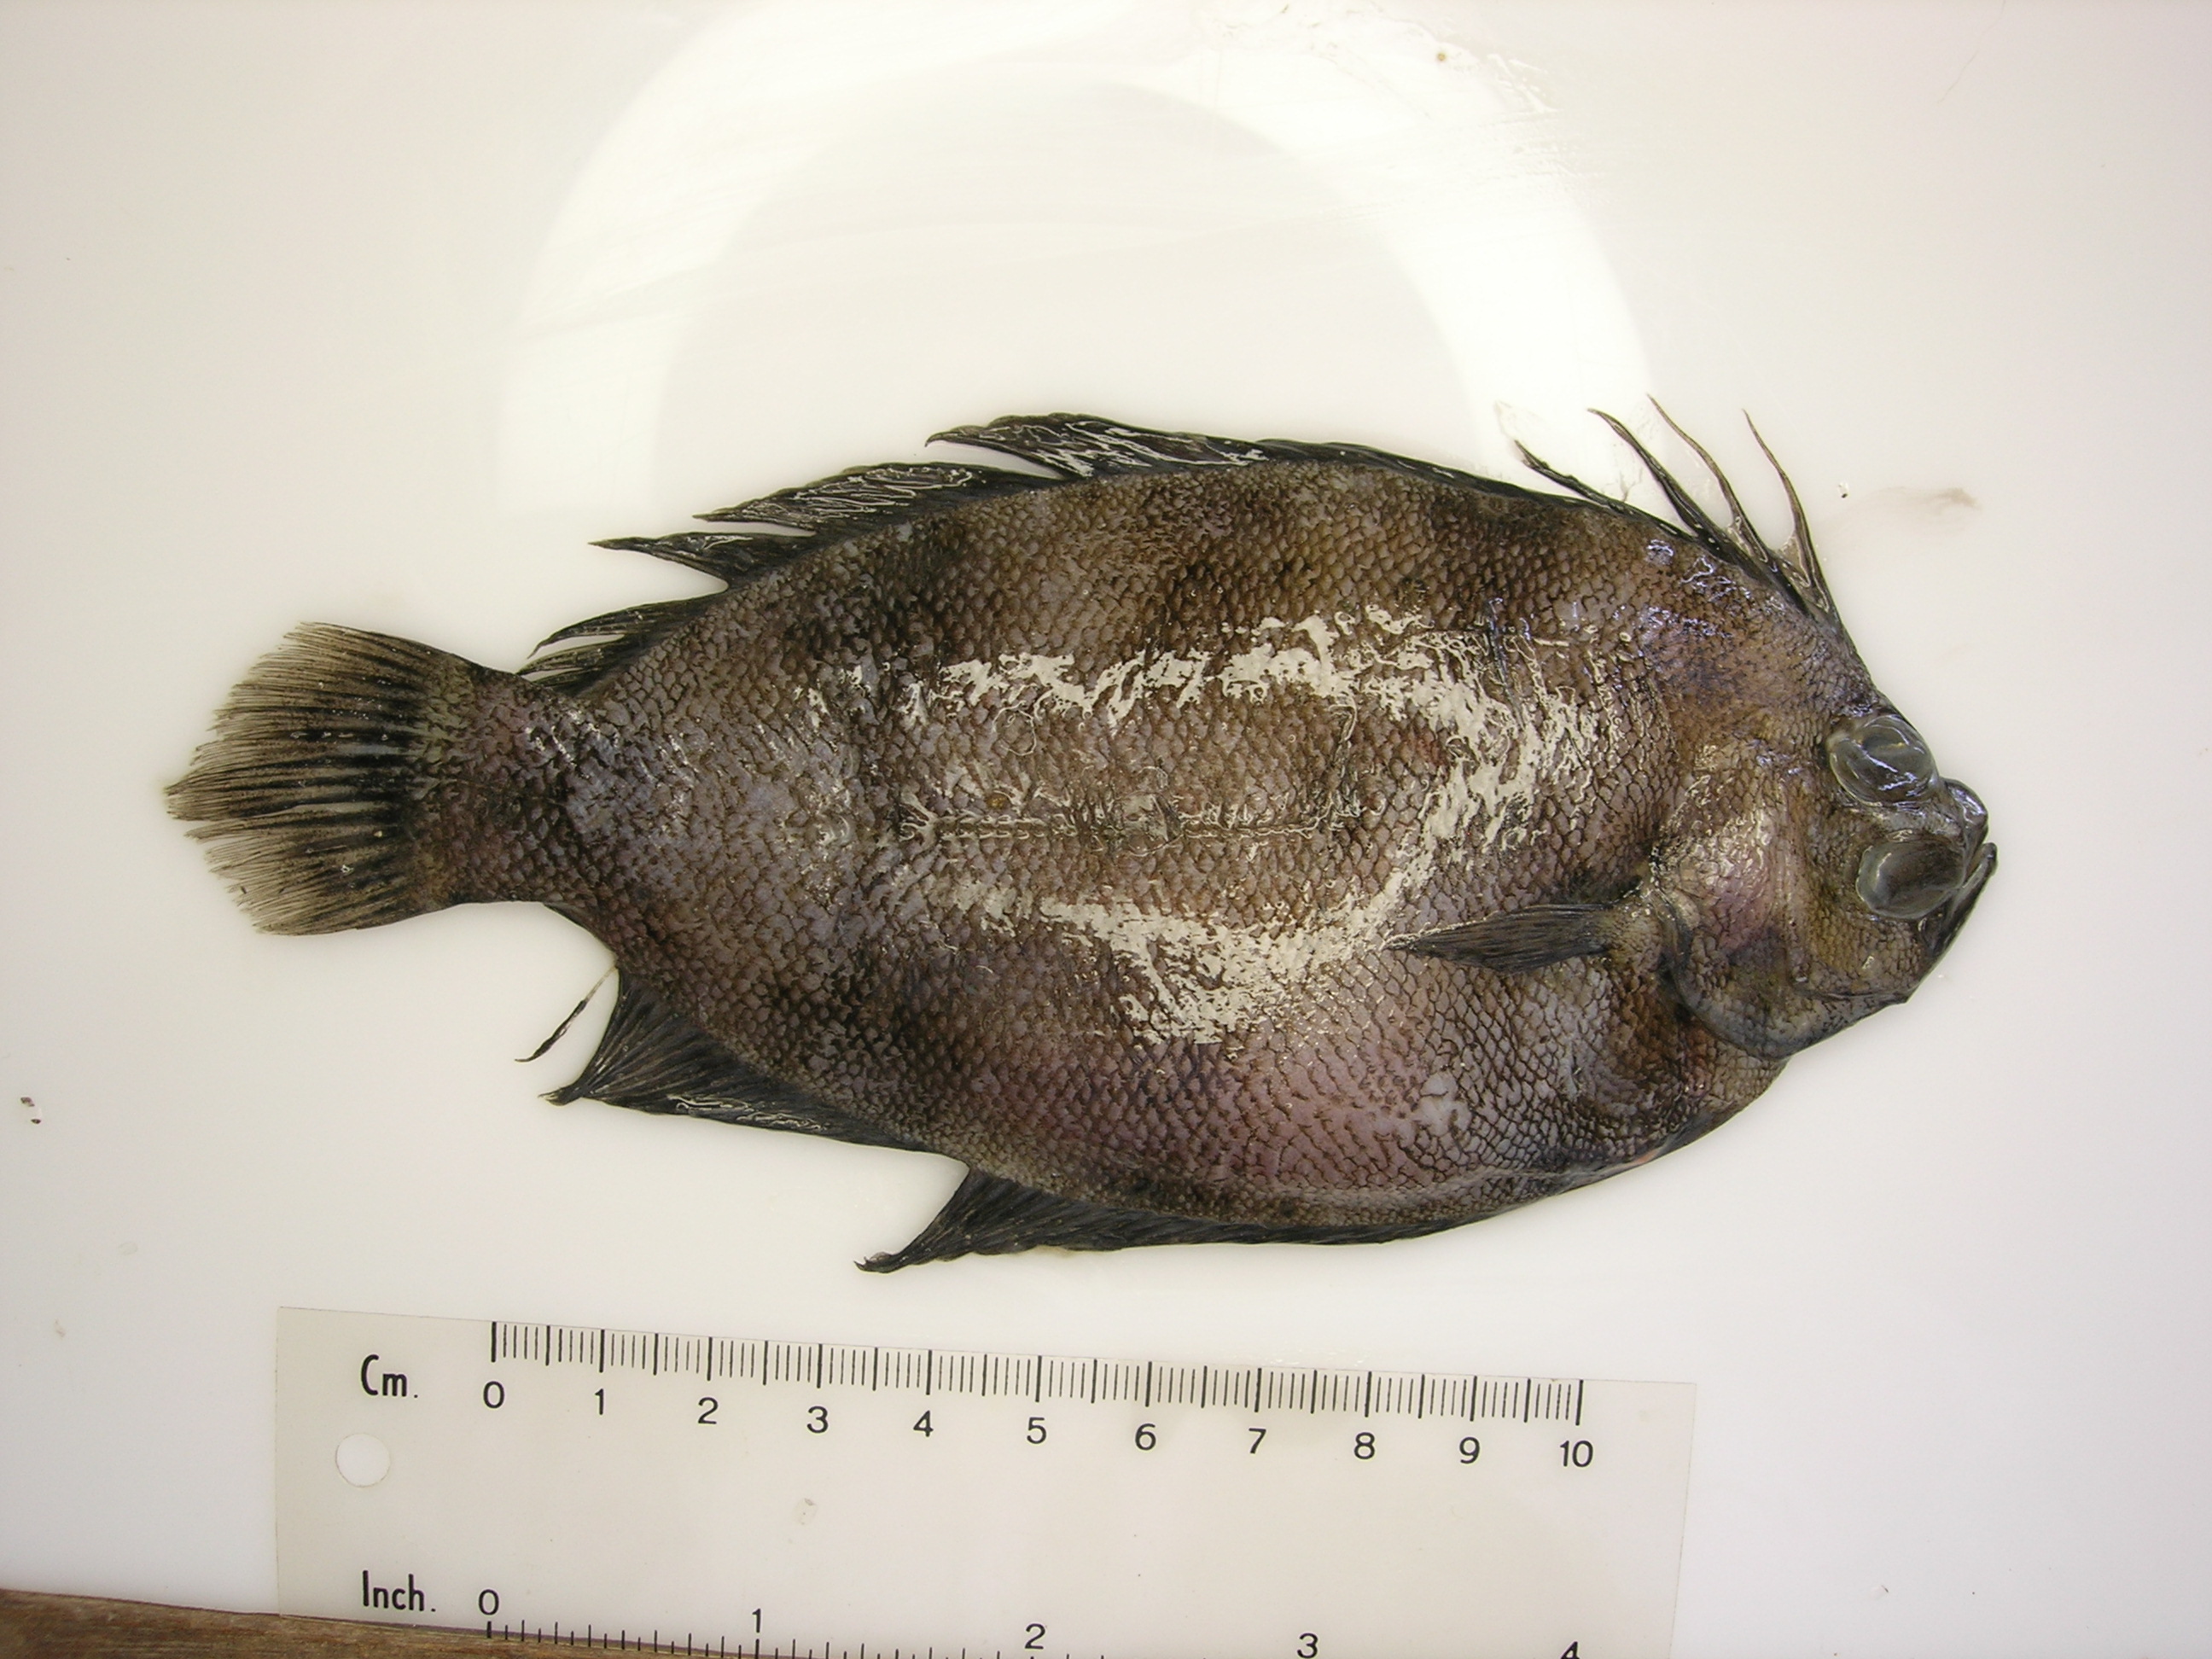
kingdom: Animalia
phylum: Chordata
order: Pleuronectiformes
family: Pleuronectidae
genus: Marleyella
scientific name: Marleyella bicolorata
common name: Bicolor righteye flounder
